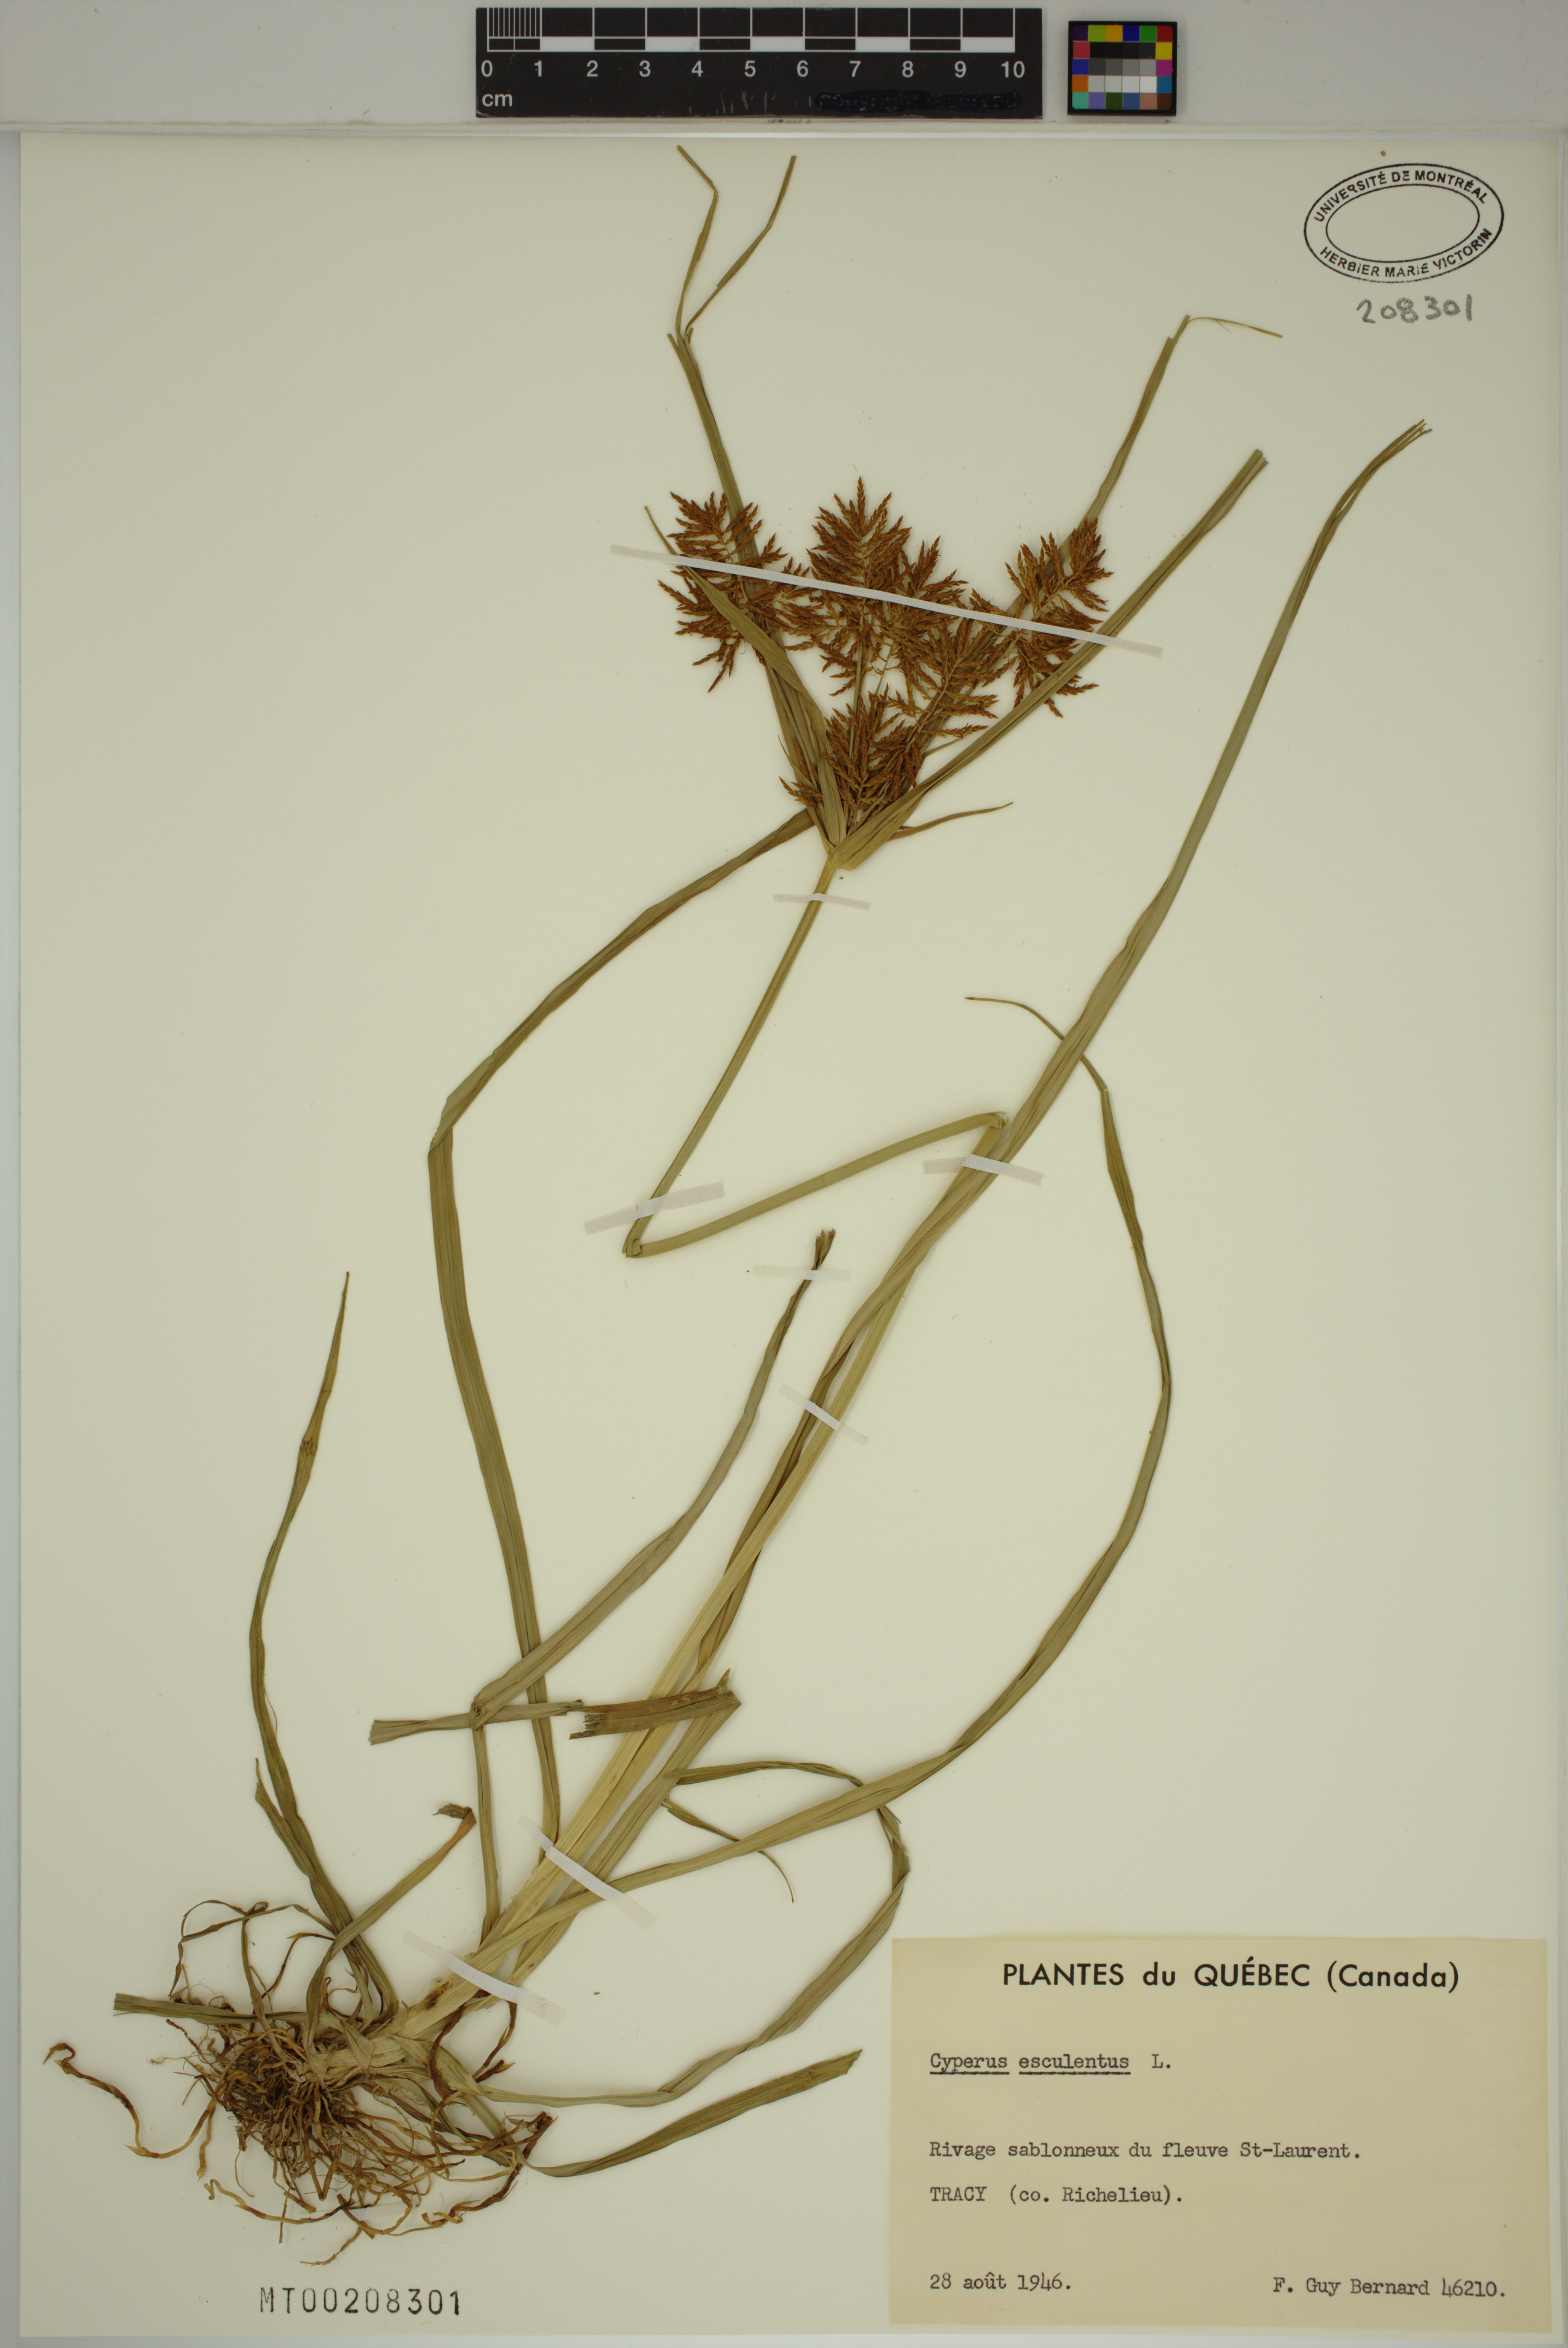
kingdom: Plantae
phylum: Tracheophyta
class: Liliopsida
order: Poales
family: Cyperaceae
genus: Cyperus
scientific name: Cyperus esculentus
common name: Yellow nutsedge
